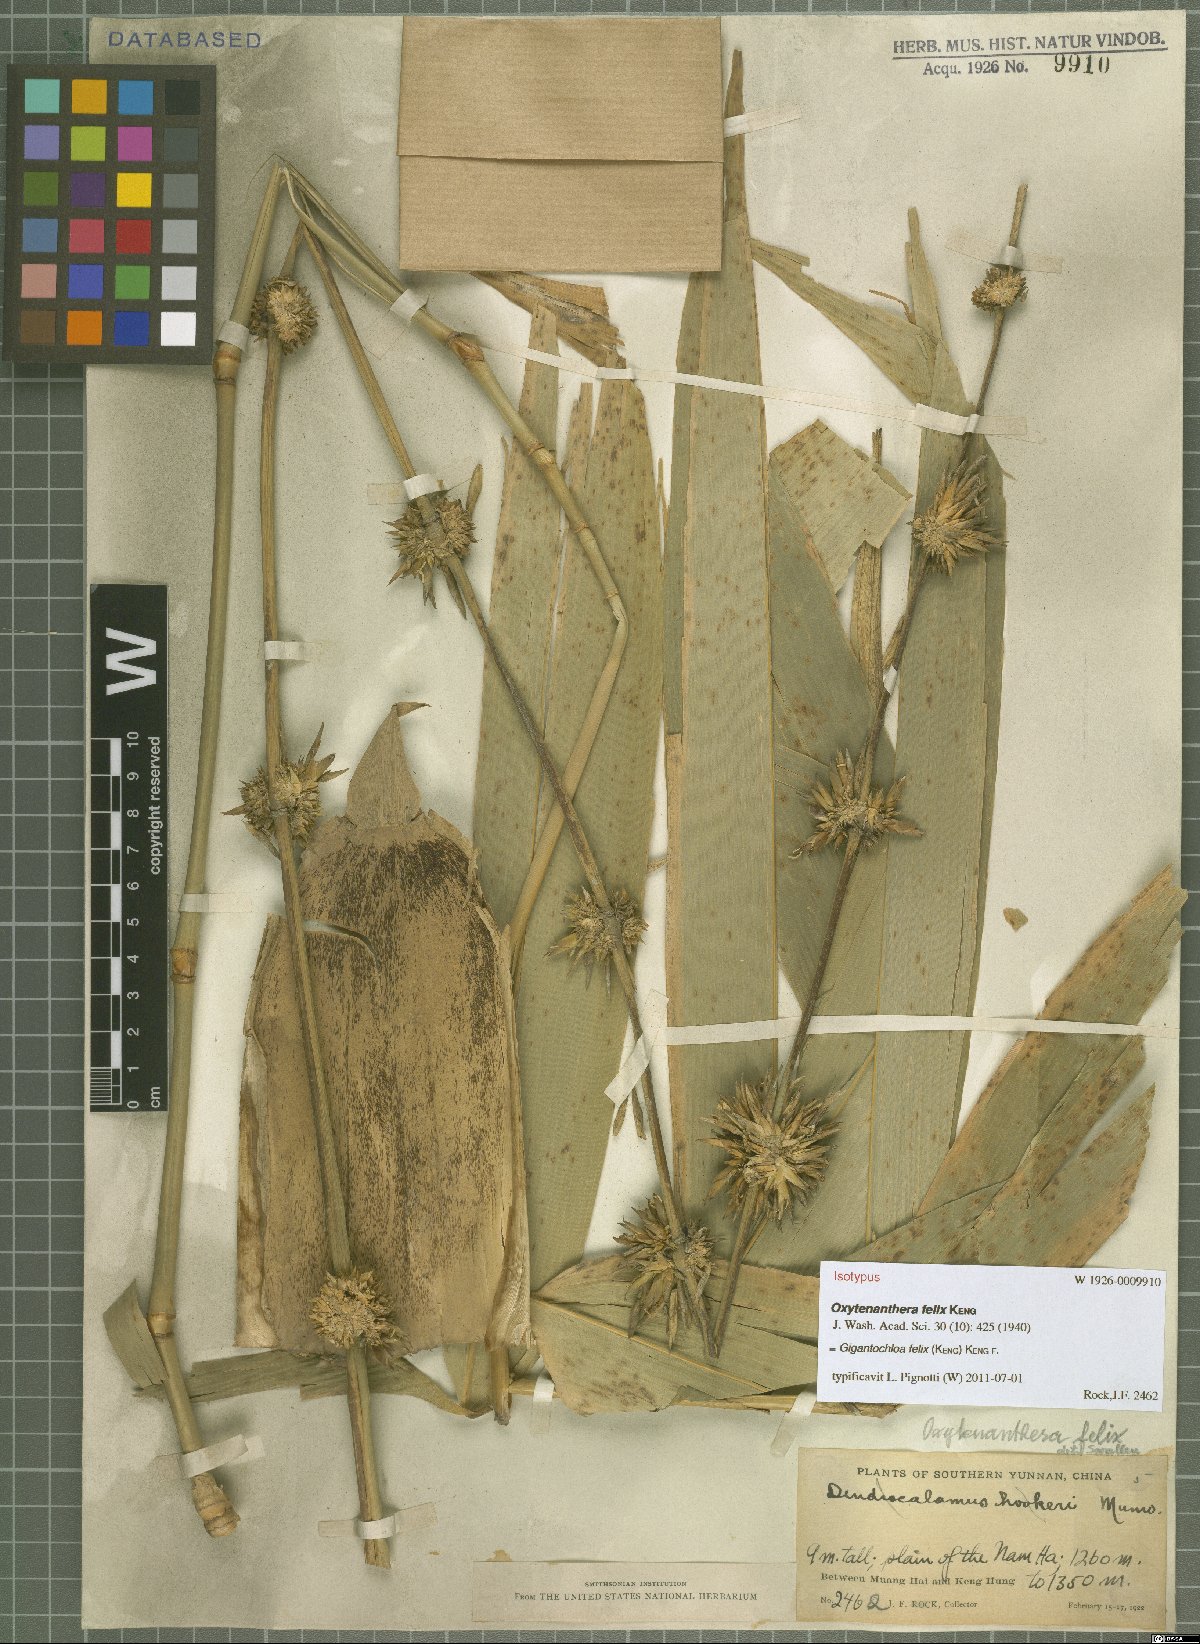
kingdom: Plantae
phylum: Tracheophyta
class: Liliopsida
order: Poales
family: Poaceae
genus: Gigantochloa
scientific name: Gigantochloa felix
